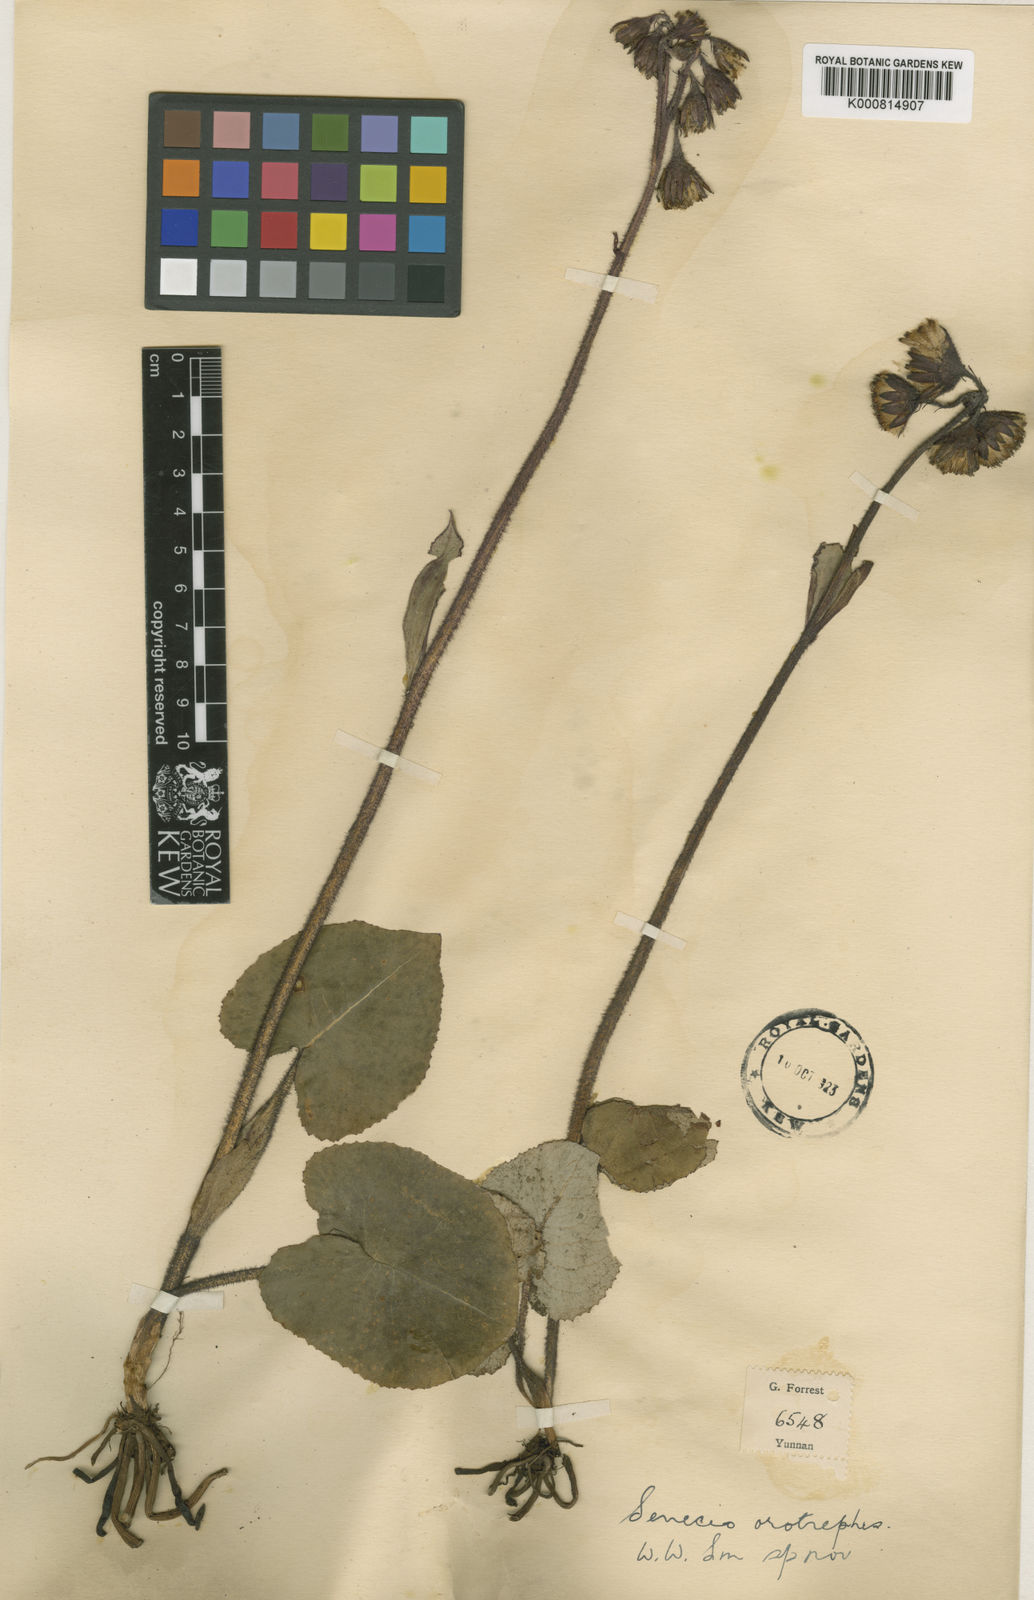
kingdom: Plantae
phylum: Tracheophyta
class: Magnoliopsida
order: Asterales
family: Asteraceae
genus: Ligularia
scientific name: Ligularia atroviolacea
